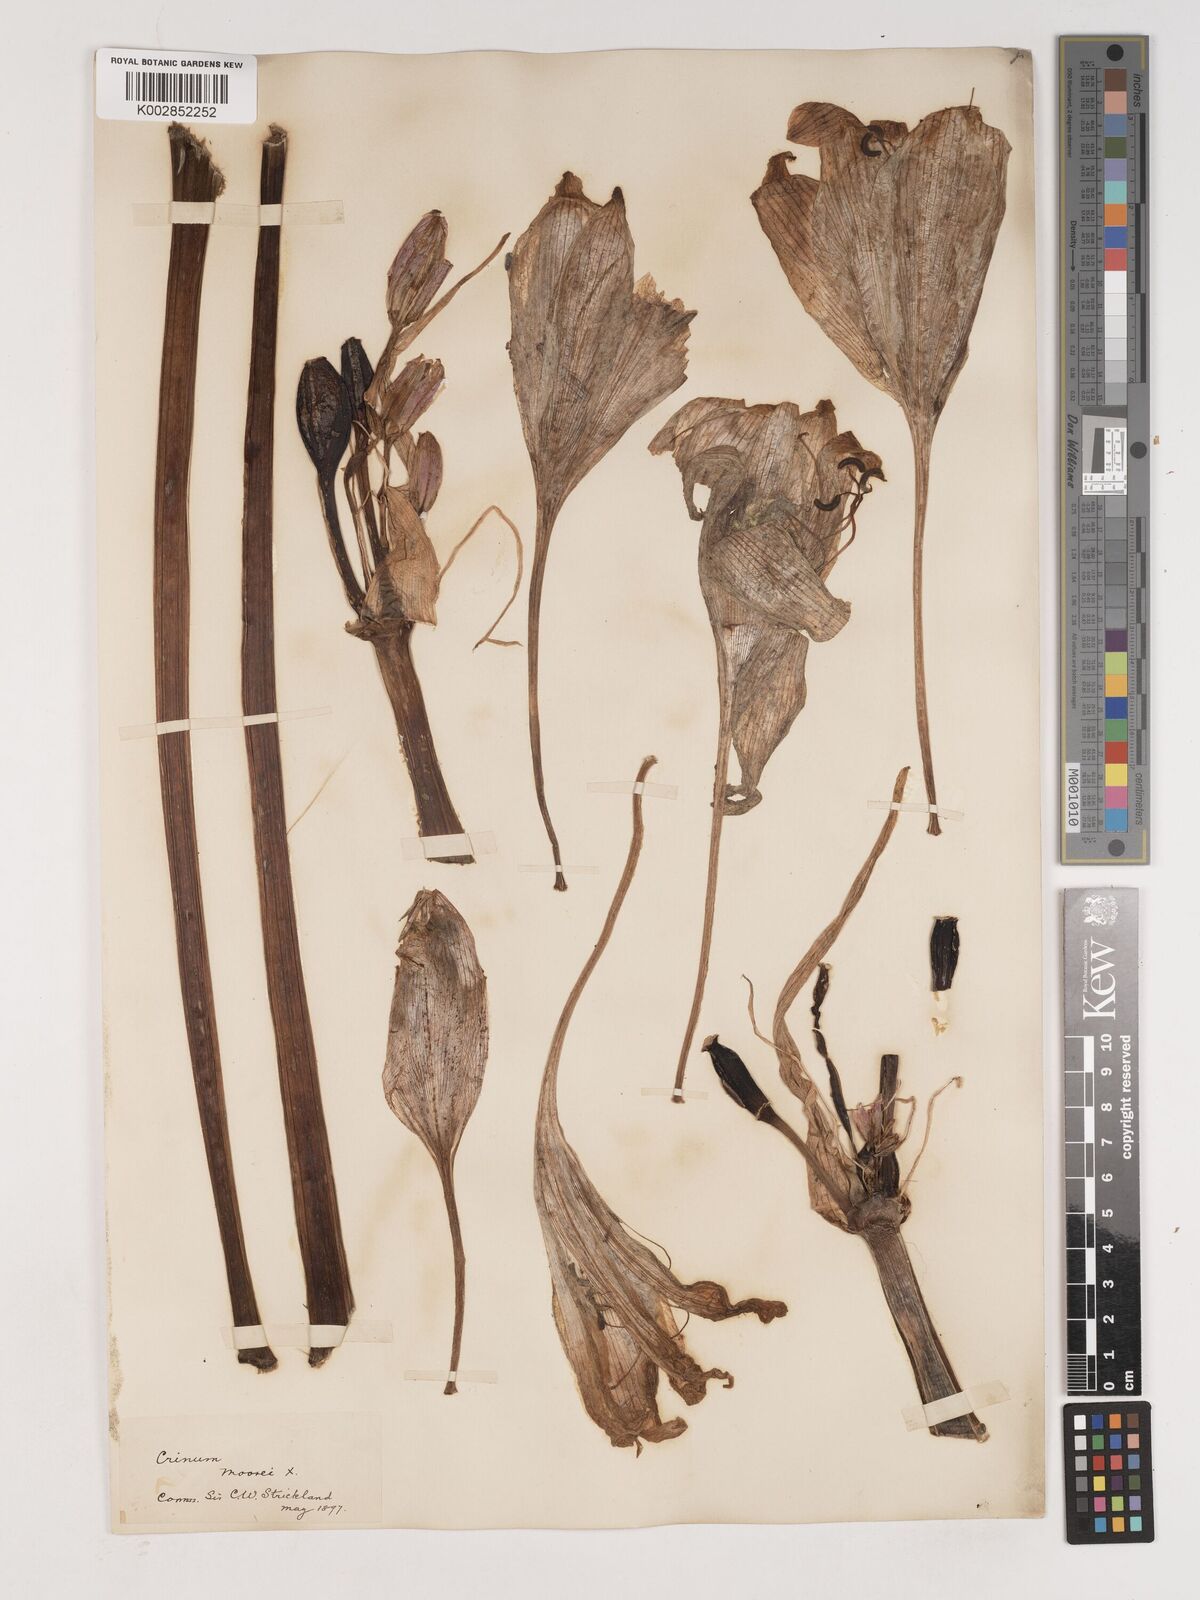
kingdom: Plantae
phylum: Tracheophyta
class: Liliopsida
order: Asparagales
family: Amaryllidaceae
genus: Crinum
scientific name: Crinum moorei
